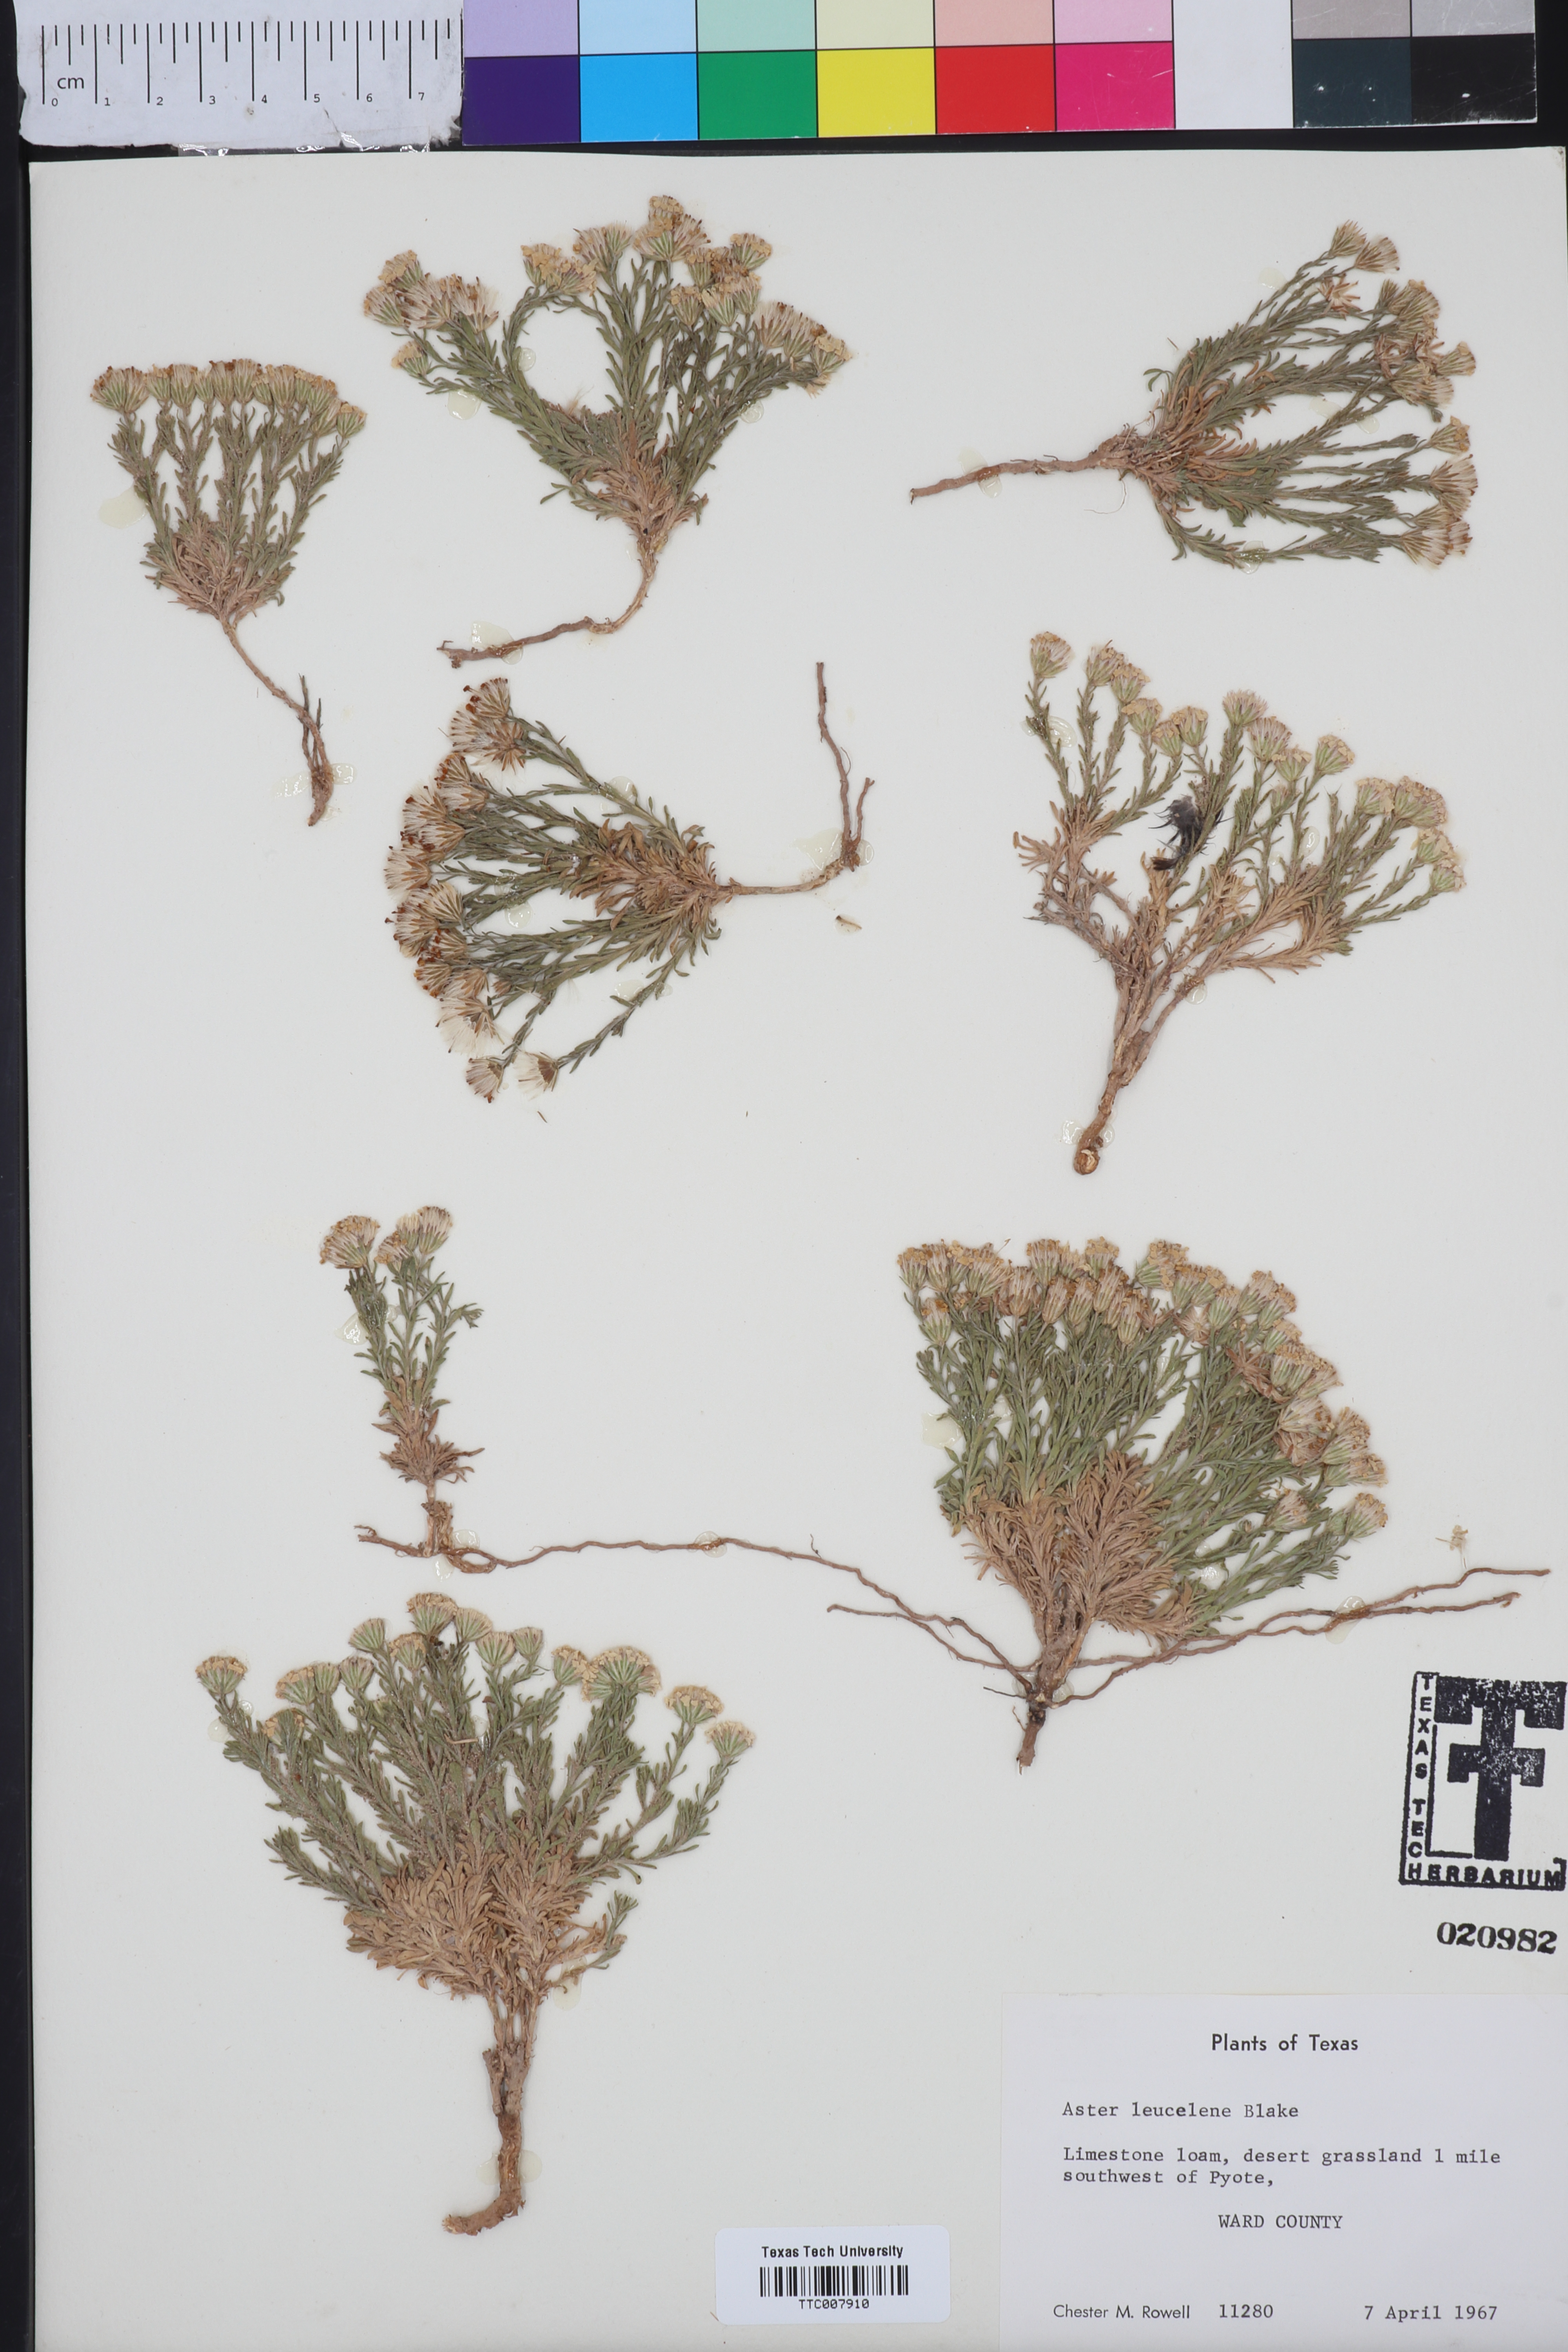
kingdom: Plantae
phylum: Tracheophyta
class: Magnoliopsida
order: Asterales
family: Asteraceae
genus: Chaetopappa
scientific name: Chaetopappa ericoides
